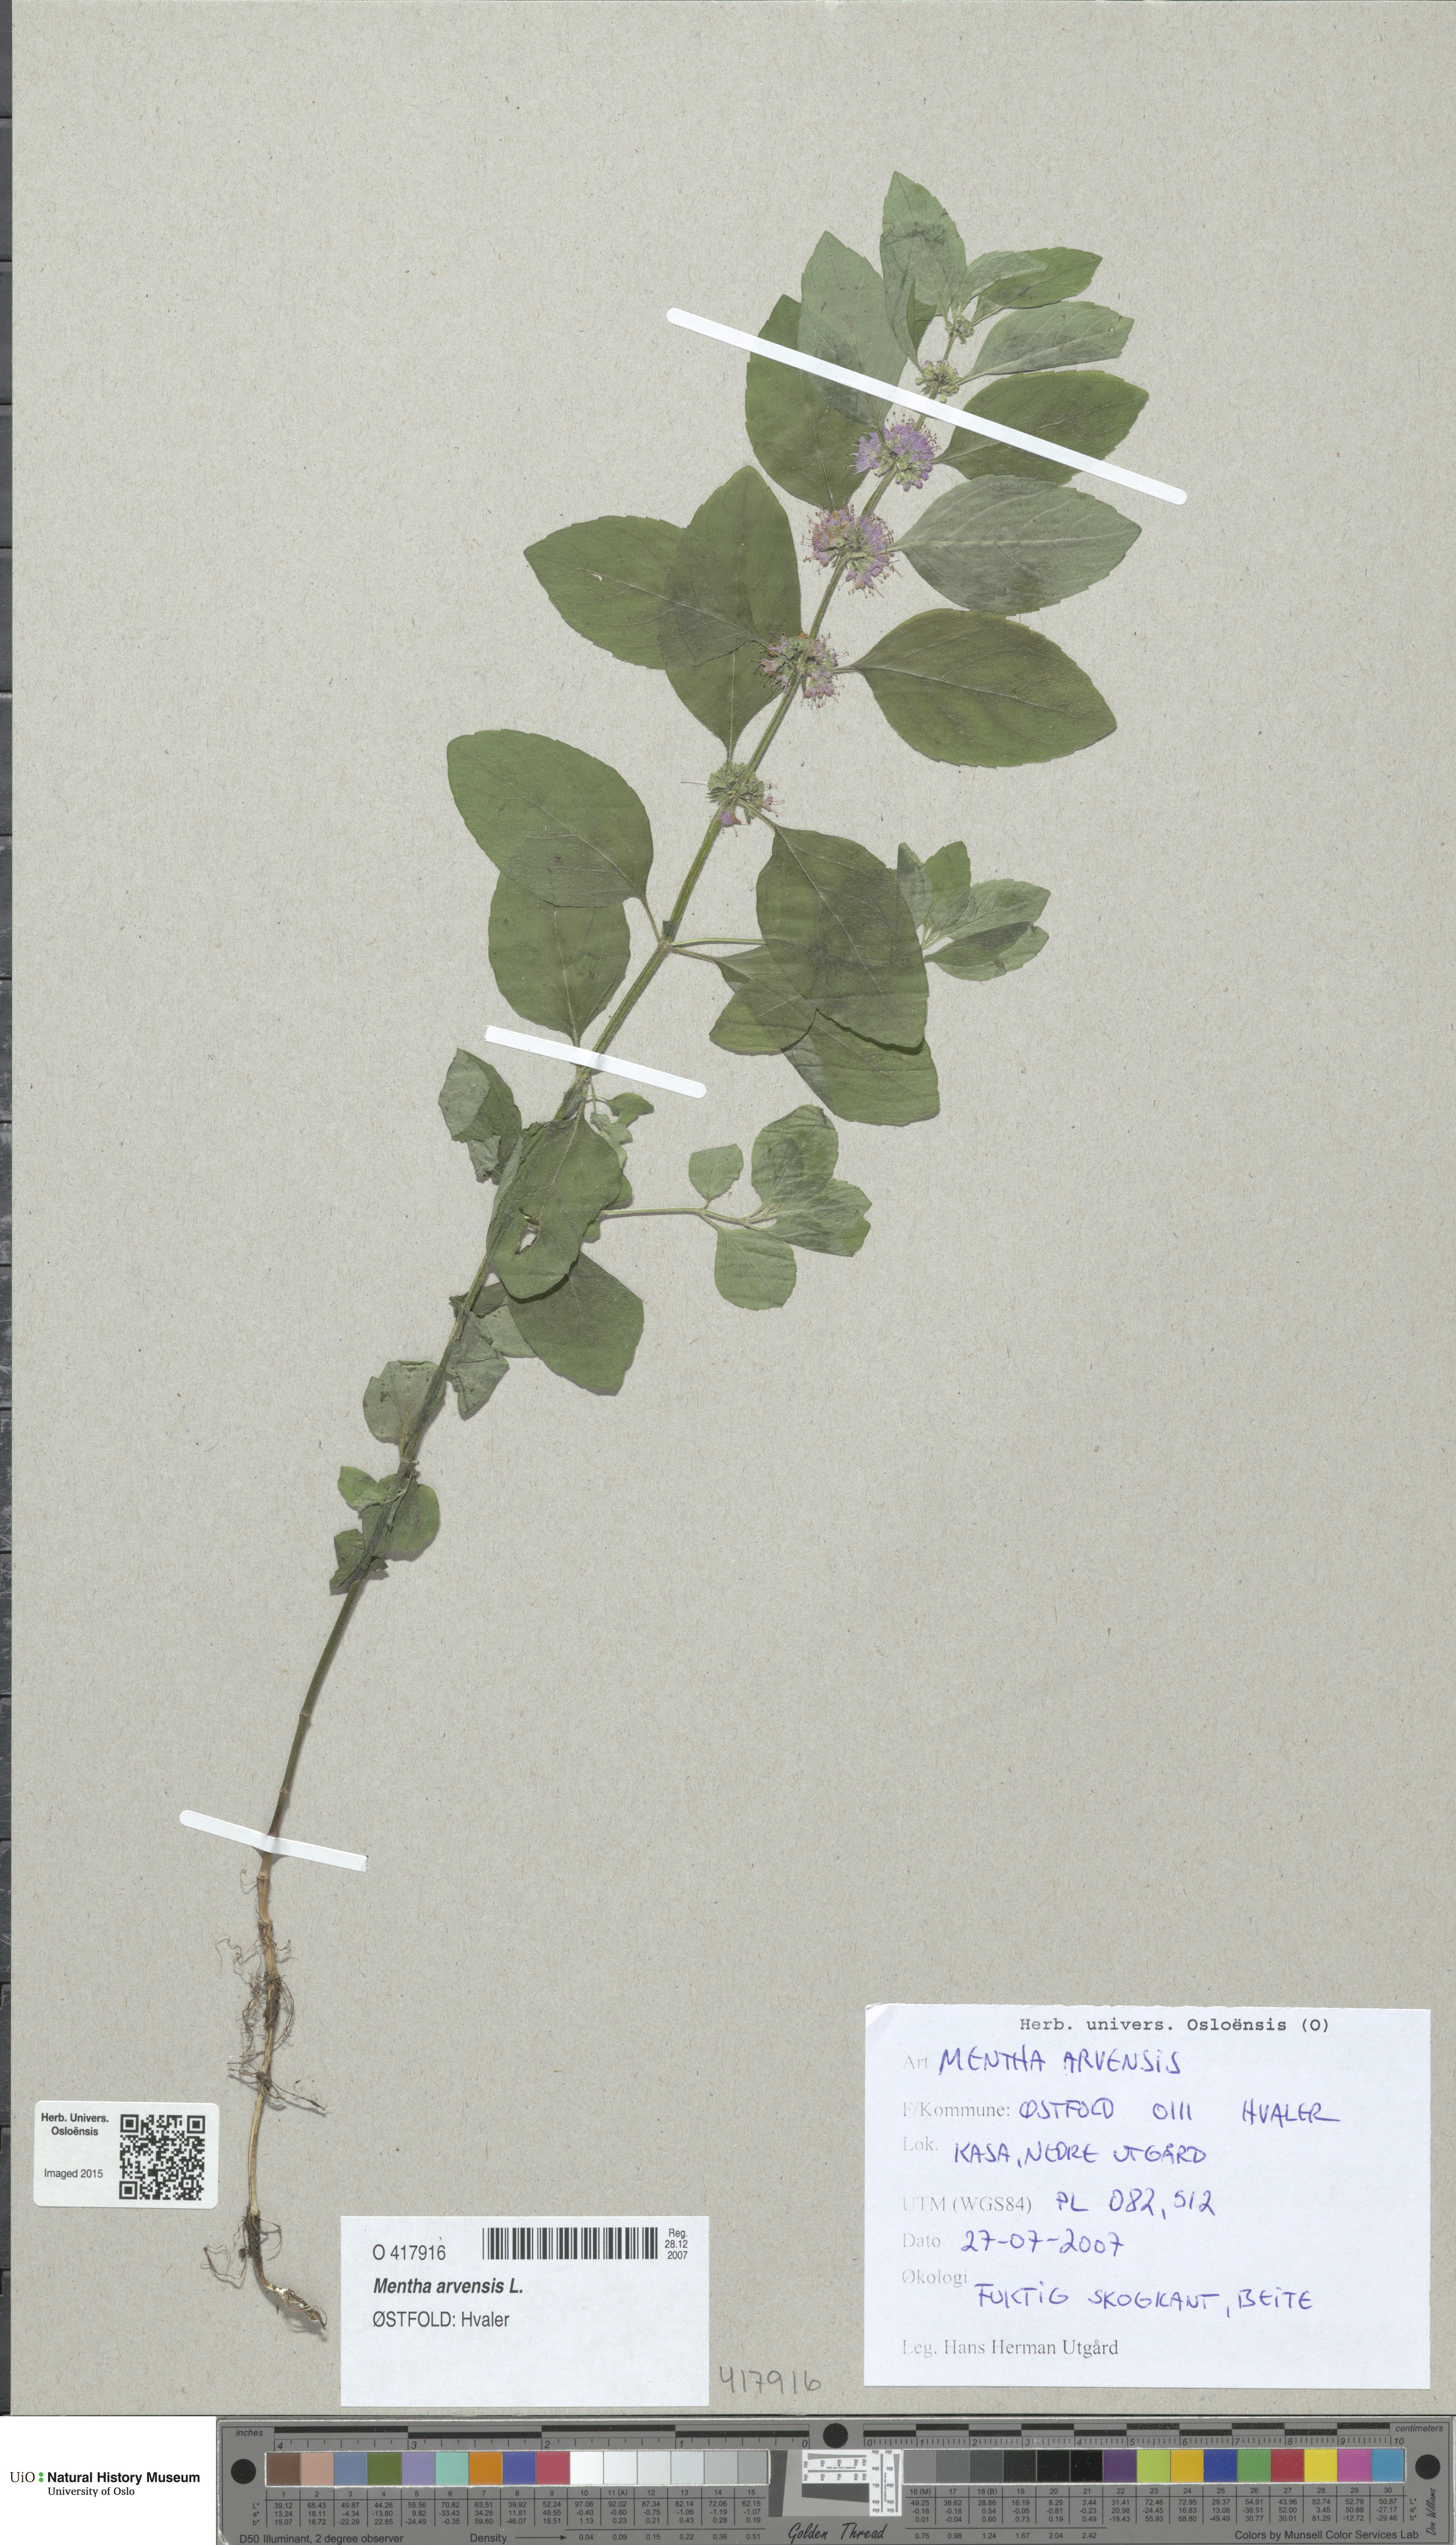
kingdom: Plantae
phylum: Tracheophyta
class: Magnoliopsida
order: Lamiales
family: Lamiaceae
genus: Mentha
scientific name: Mentha arvensis
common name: Corn mint
